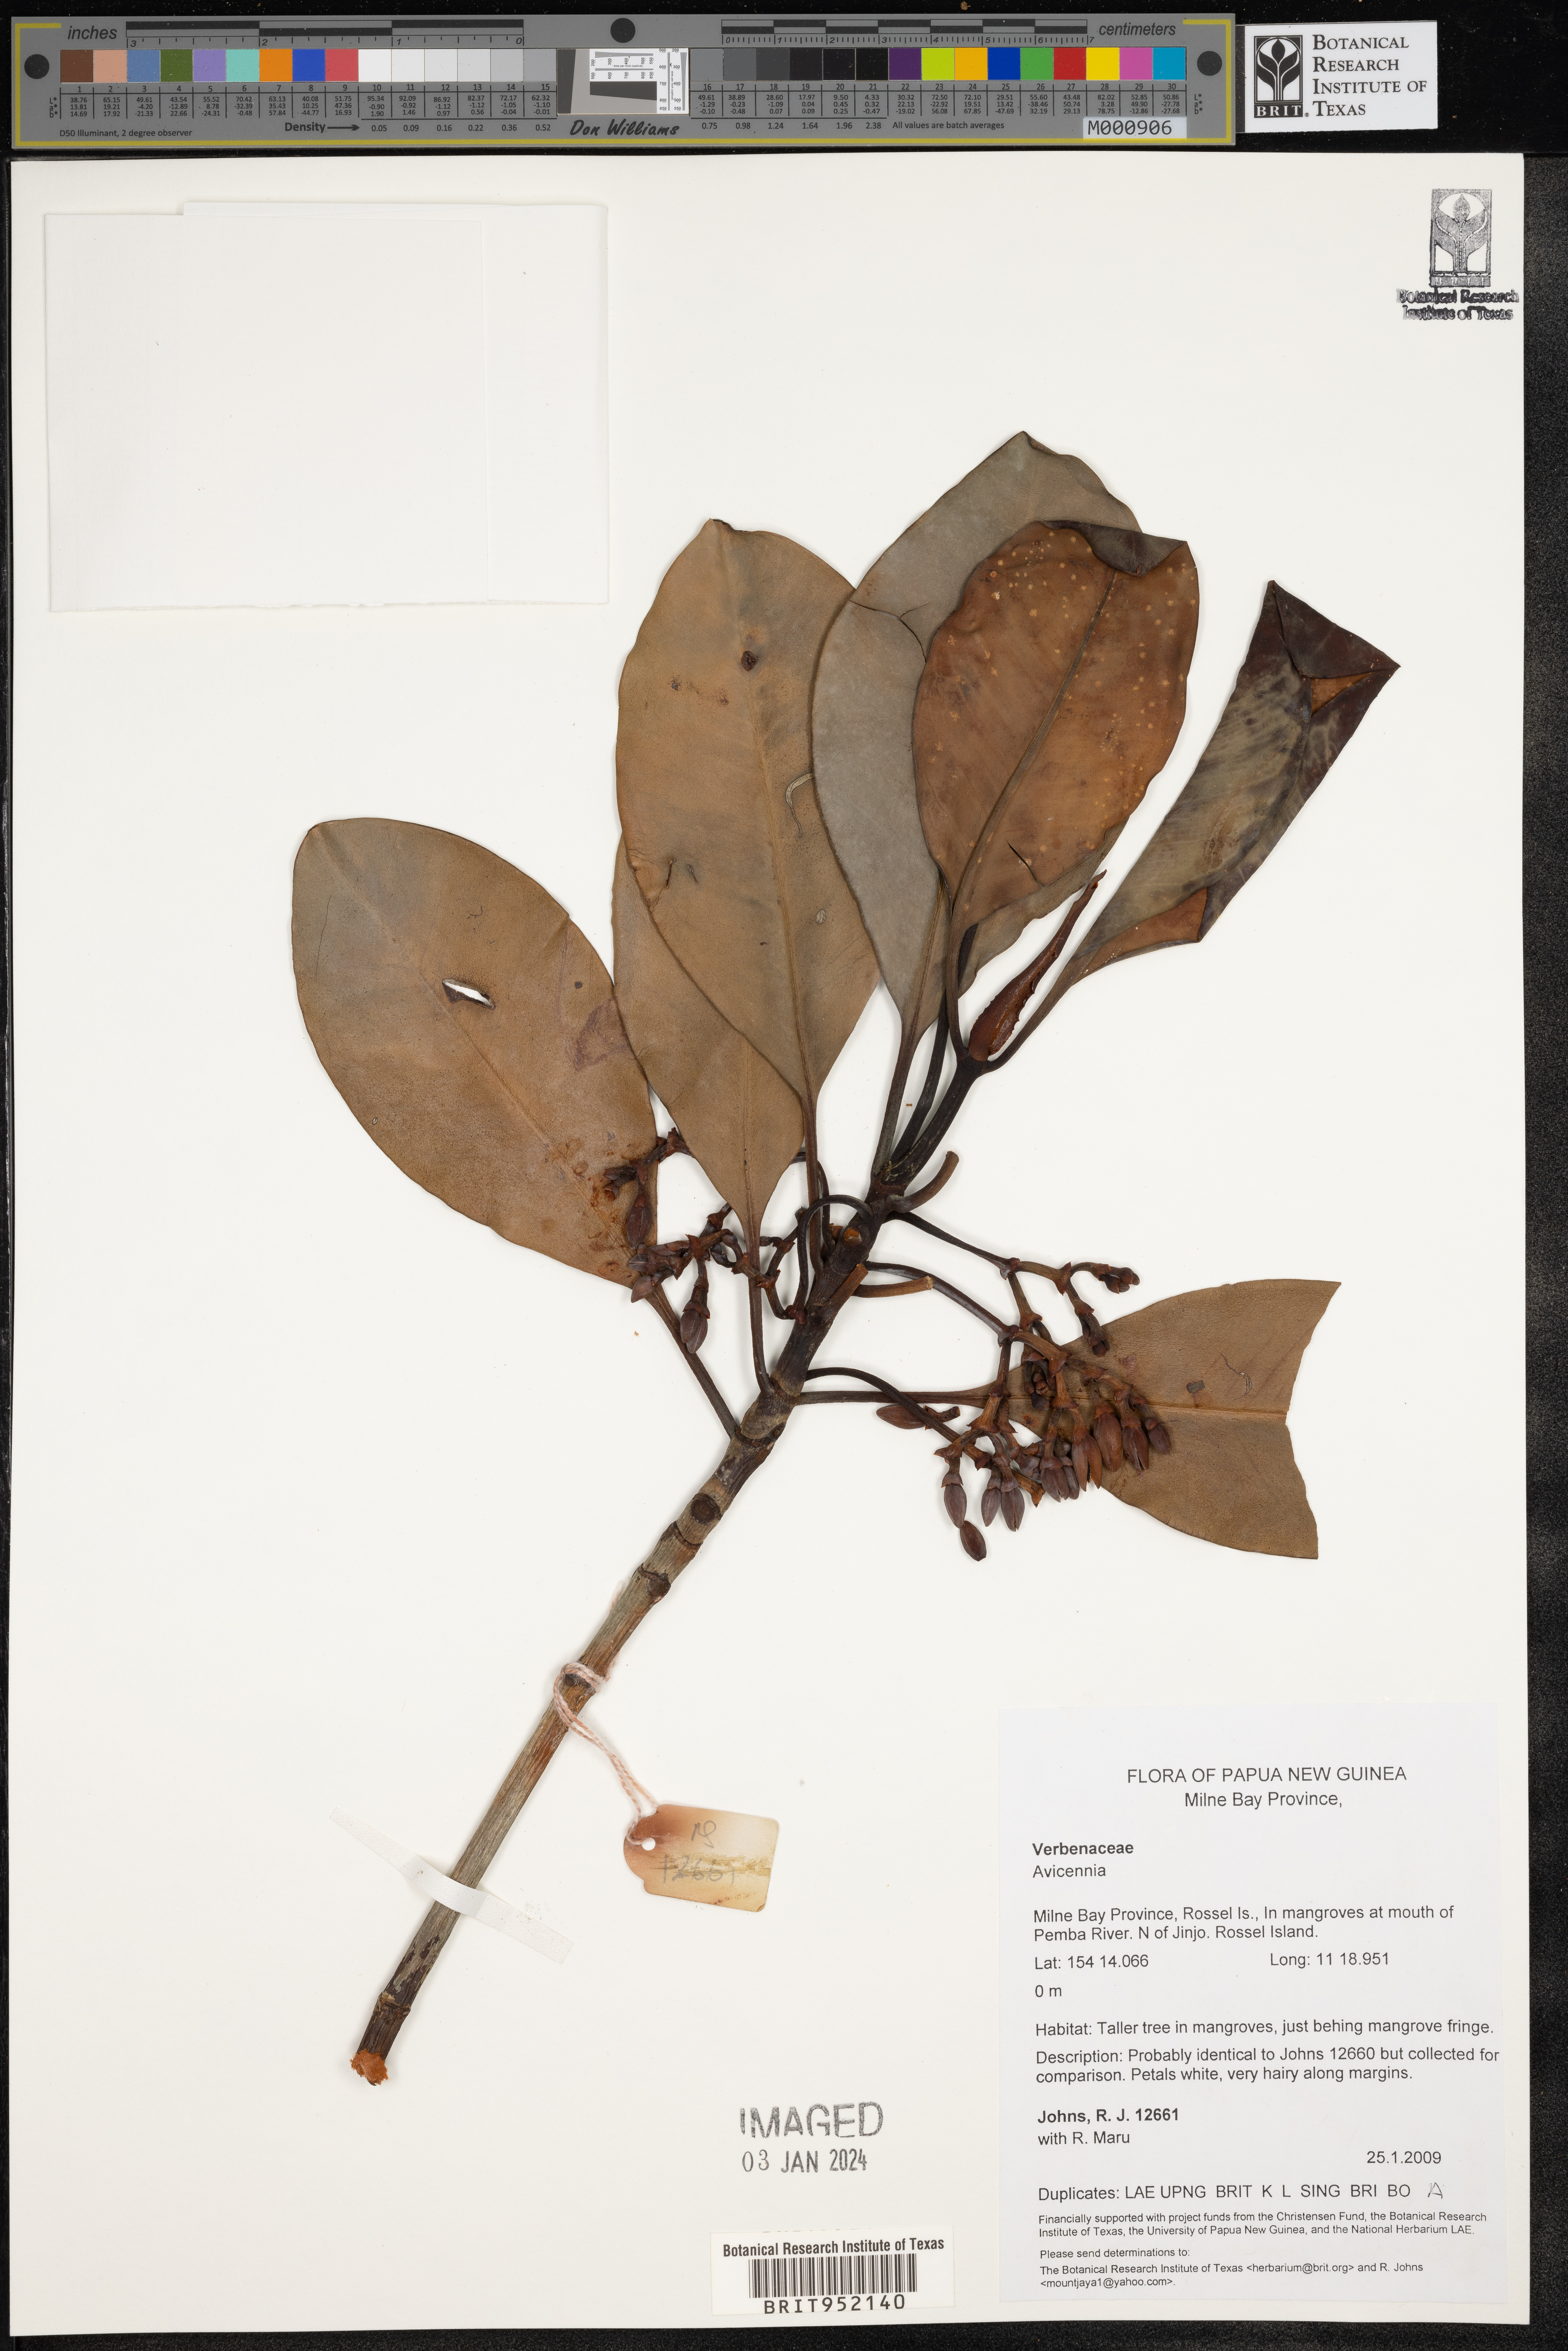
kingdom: Plantae
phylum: Tracheophyta
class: Magnoliopsida
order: Lamiales
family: Acanthaceae
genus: Avicennia
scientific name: Avicennia
